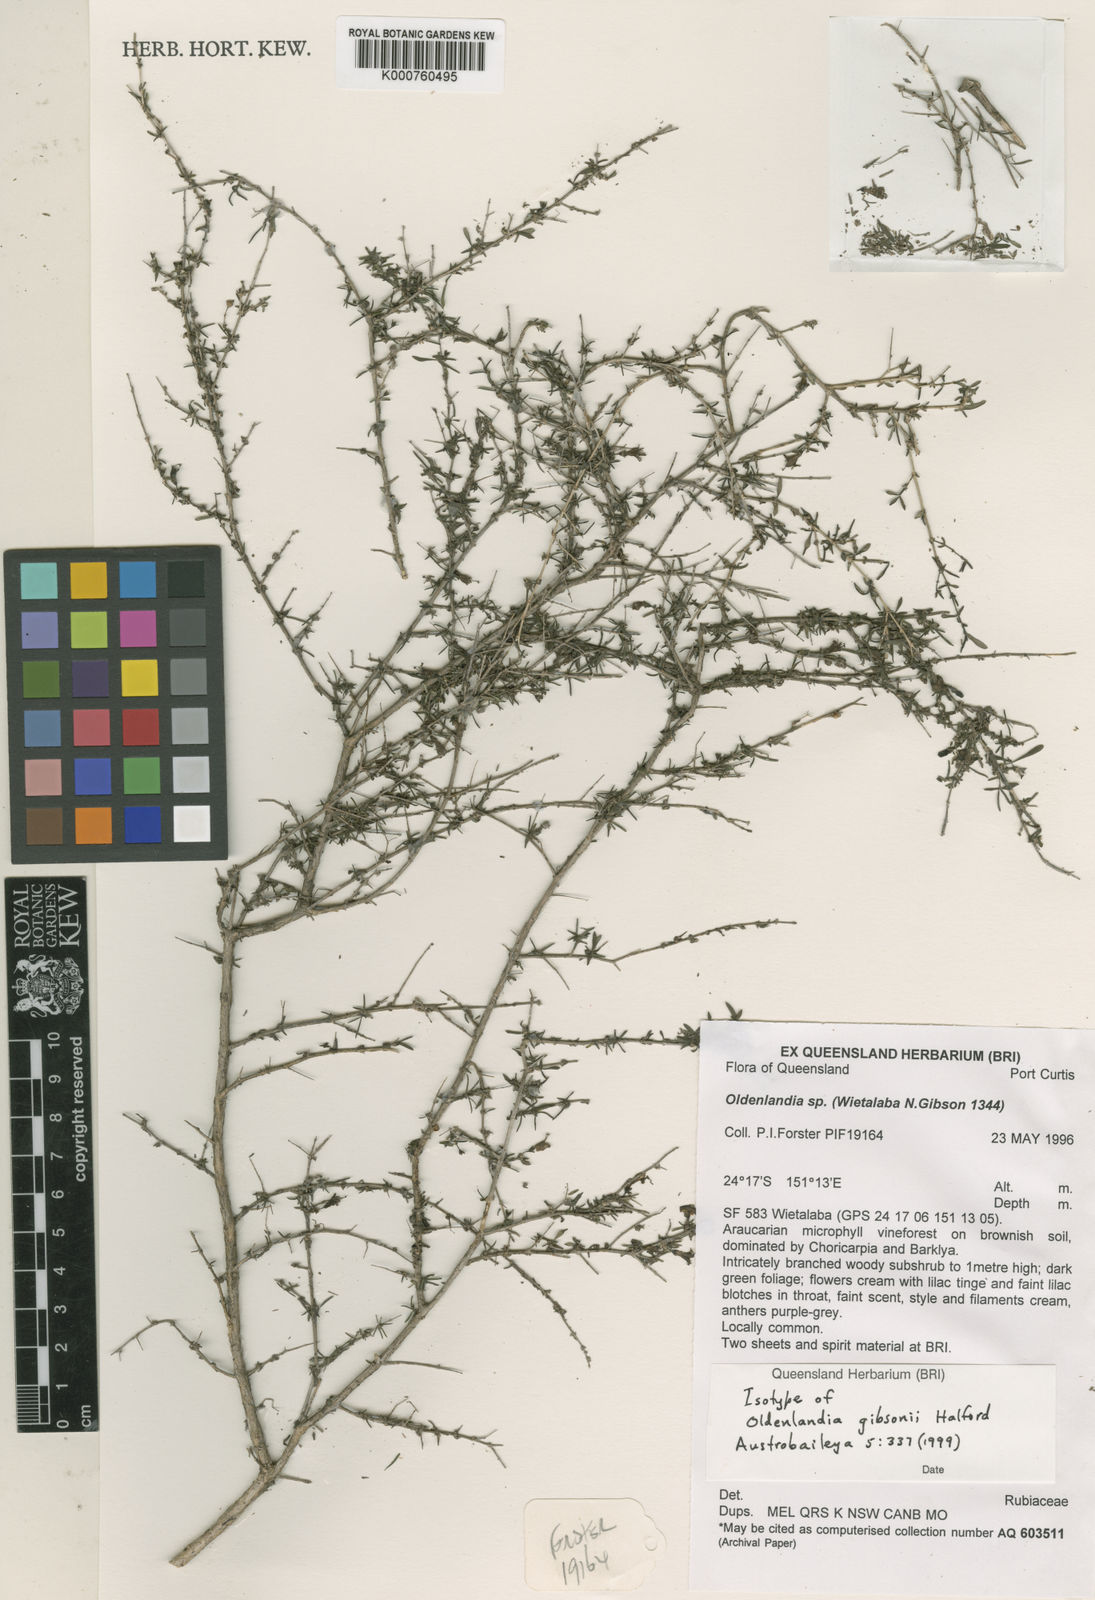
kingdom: Plantae
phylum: Tracheophyta
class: Magnoliopsida
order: Gentianales
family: Rubiaceae
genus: Scleromitrion
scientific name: Scleromitrion gibsonii
